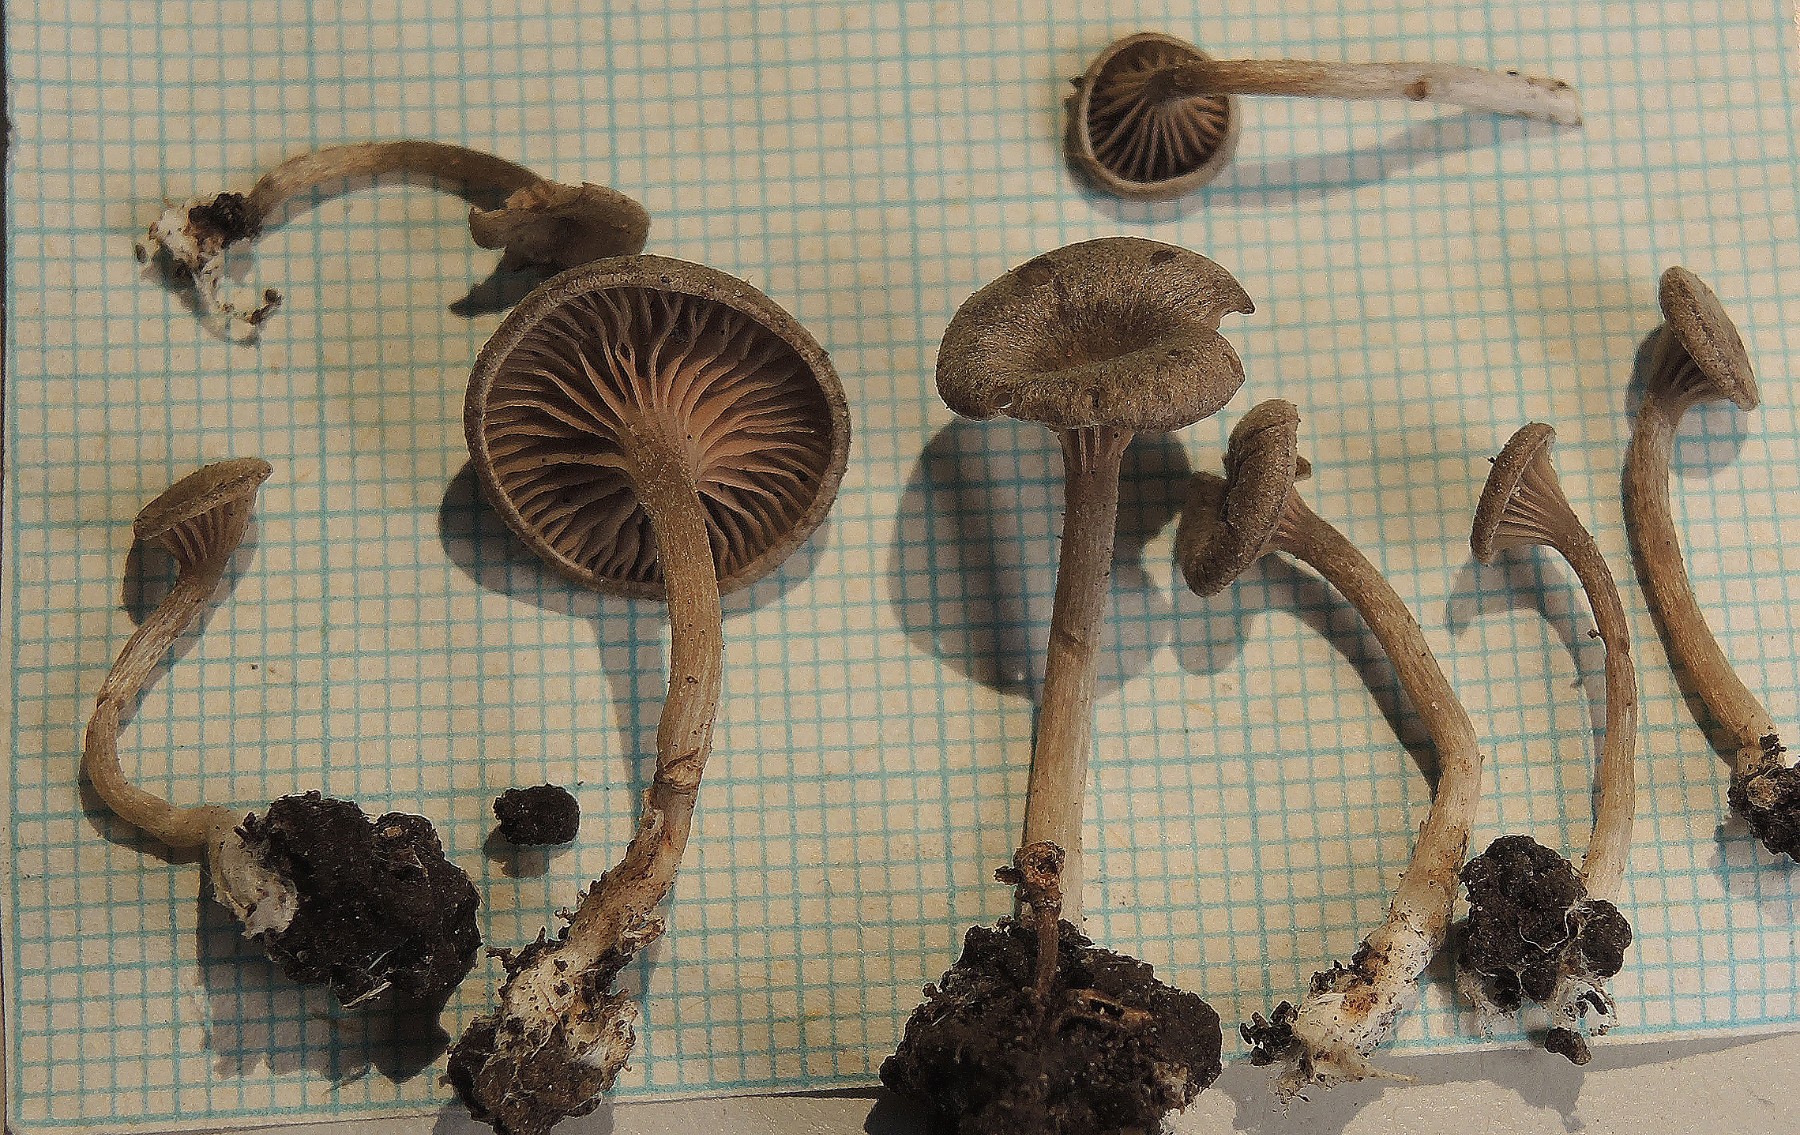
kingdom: Fungi
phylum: Basidiomycota
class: Agaricomycetes
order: Agaricales
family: Entolomataceae
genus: Entoloma
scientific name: Entoloma undatum
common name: bæltet rødblad
